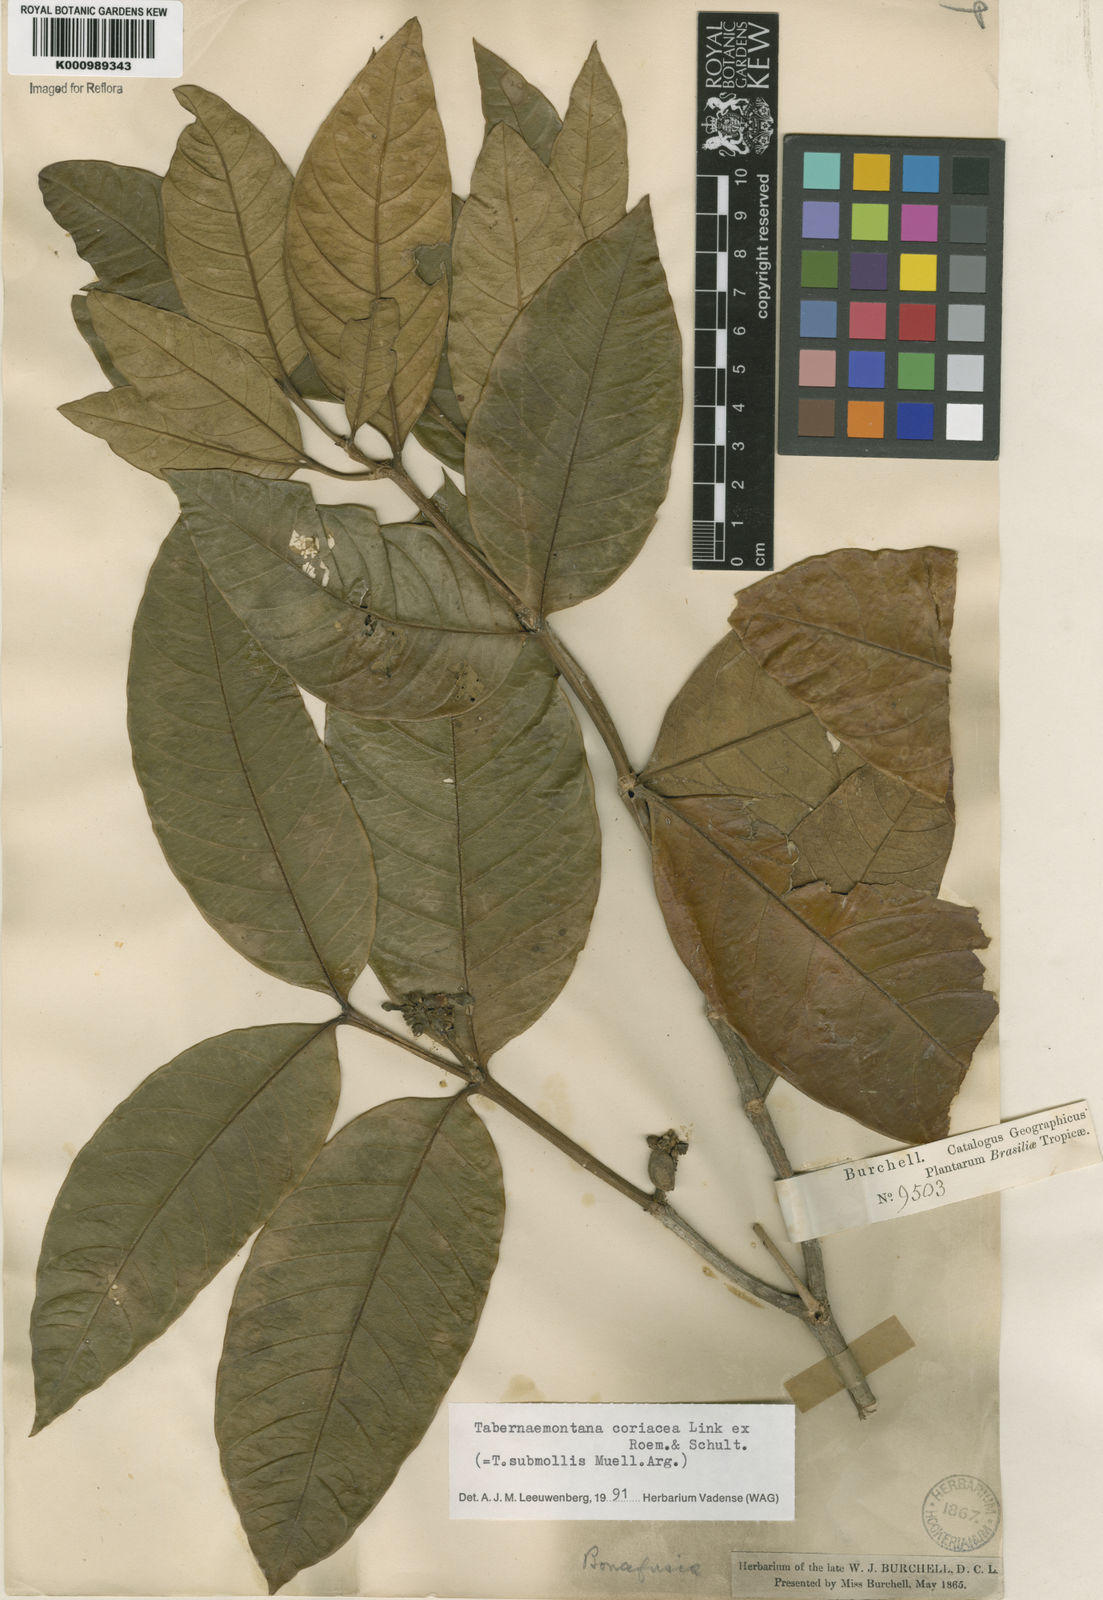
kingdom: Plantae
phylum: Tracheophyta
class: Magnoliopsida
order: Gentianales
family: Apocynaceae
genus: Tabernaemontana
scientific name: Tabernaemontana coriacea
